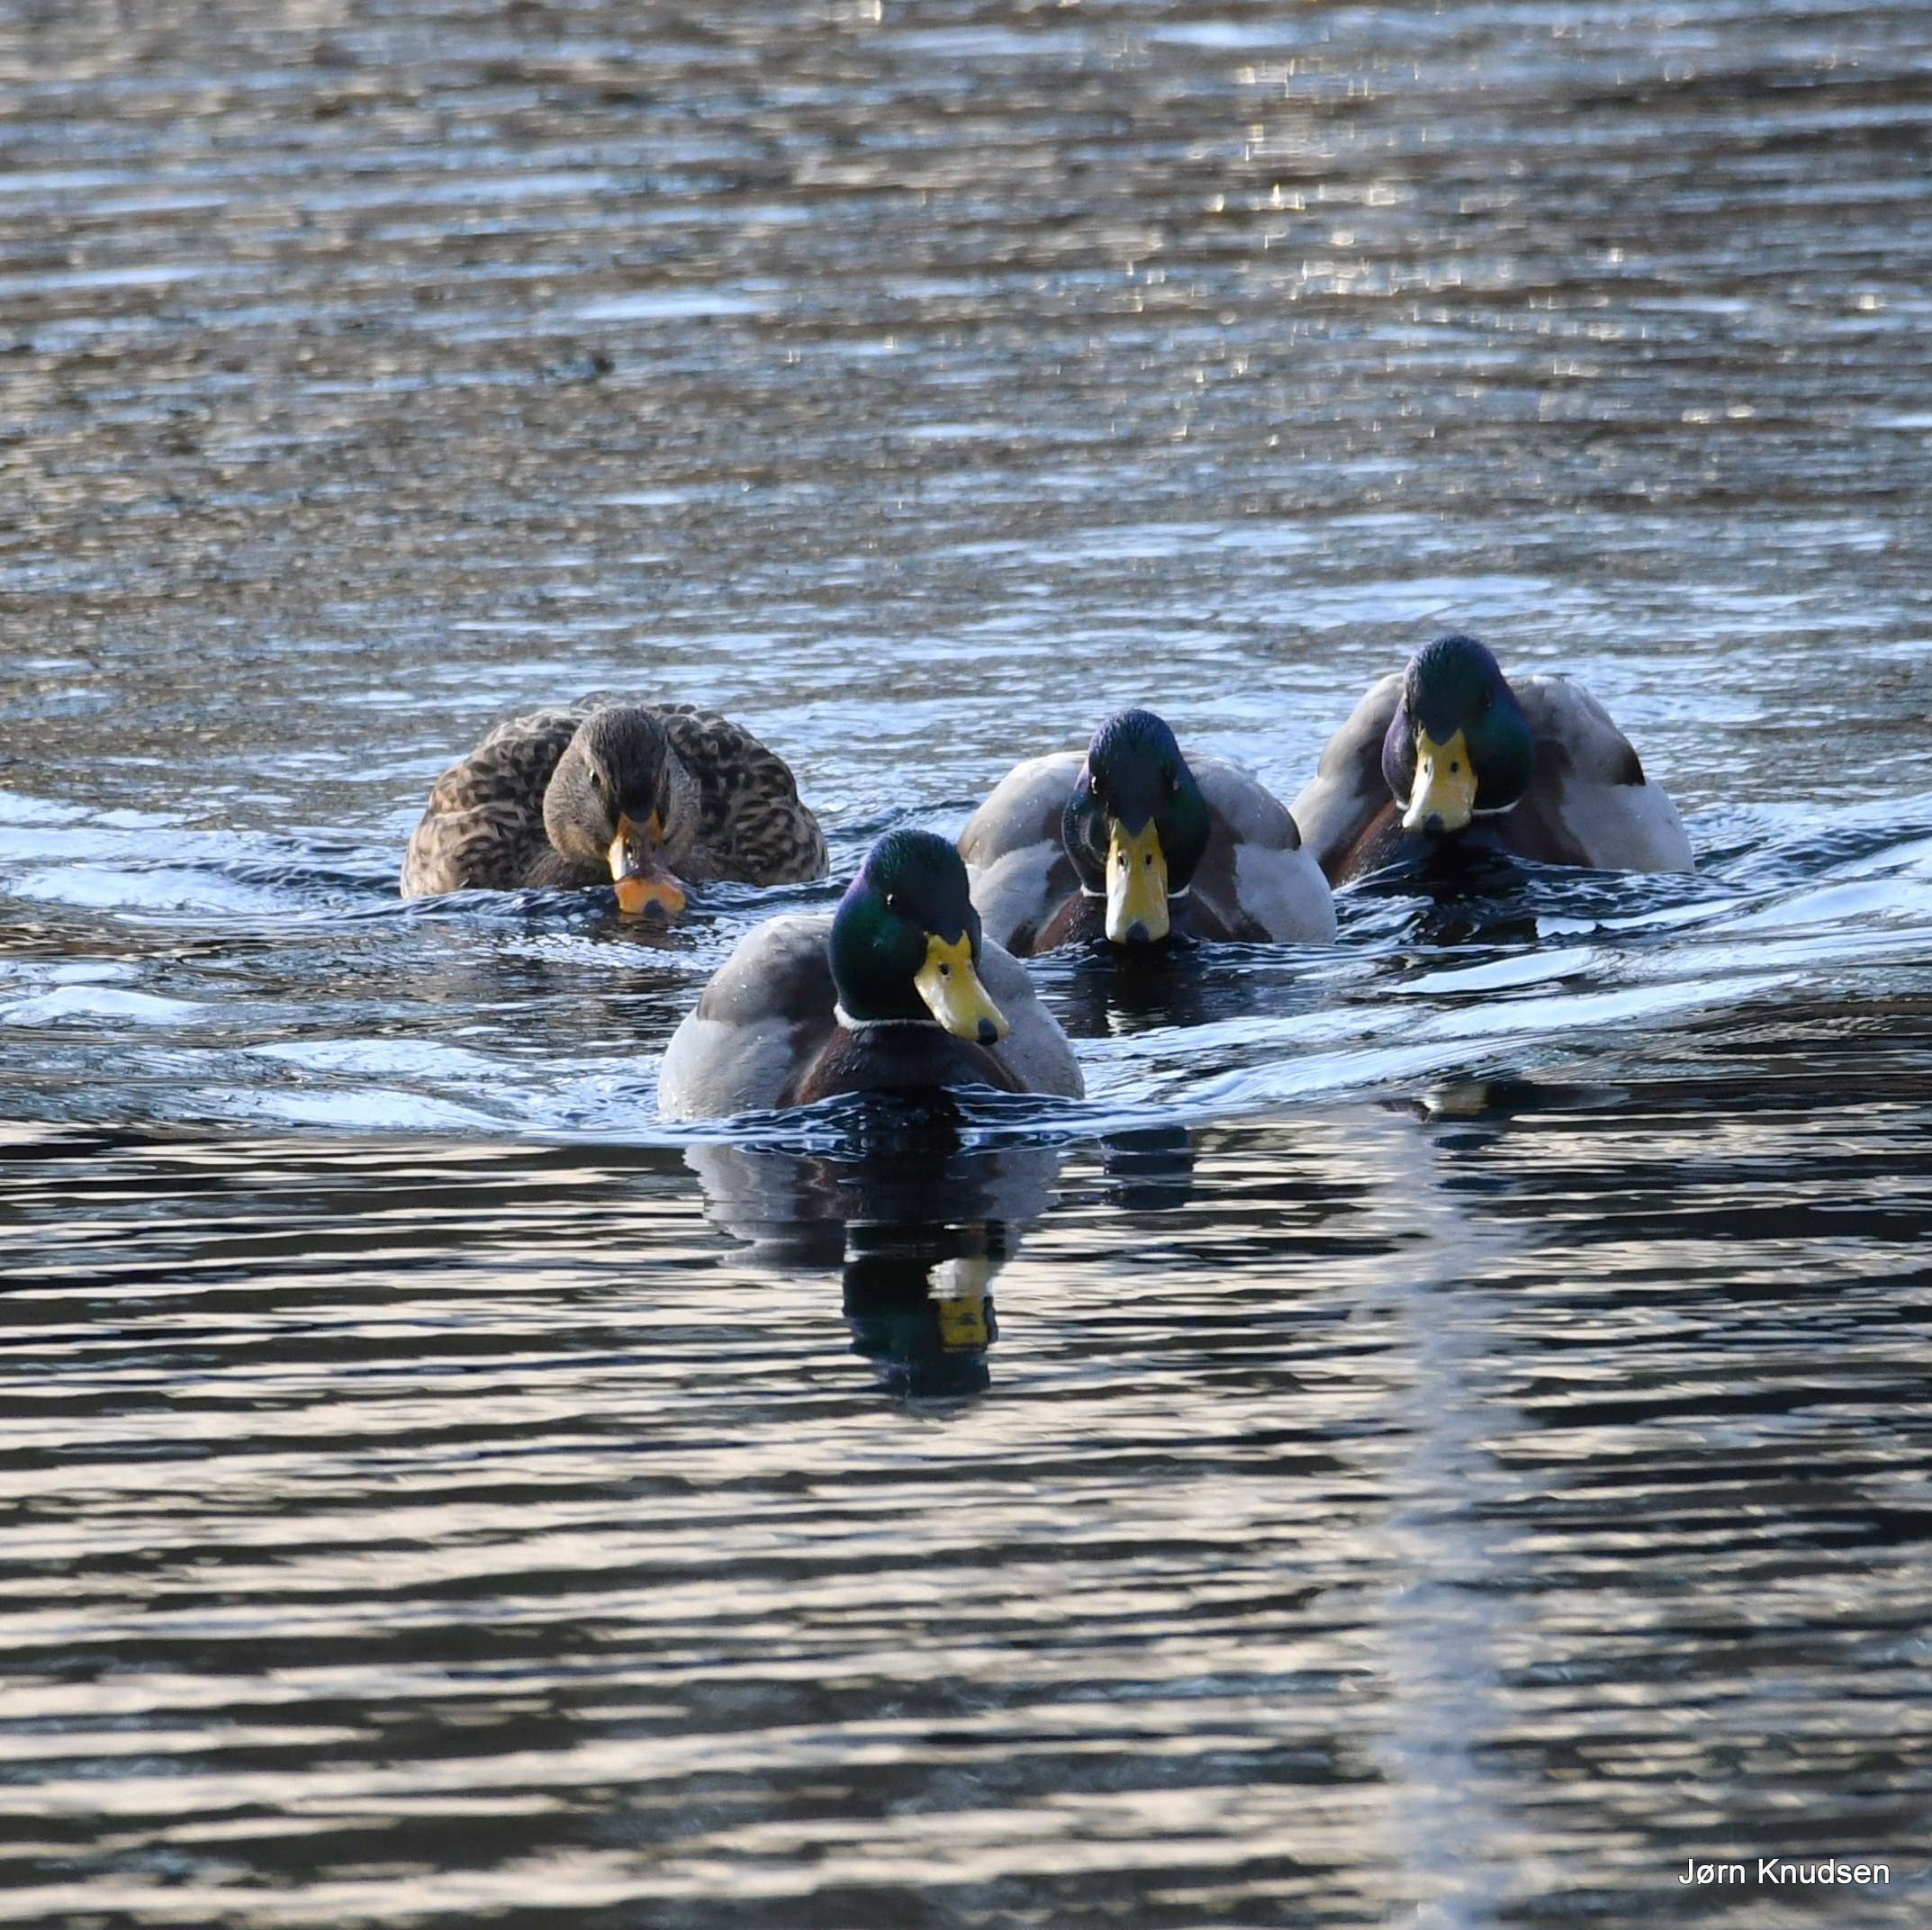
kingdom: Animalia
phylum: Chordata
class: Aves
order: Anseriformes
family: Anatidae
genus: Anas
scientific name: Anas platyrhynchos
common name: Gråand
